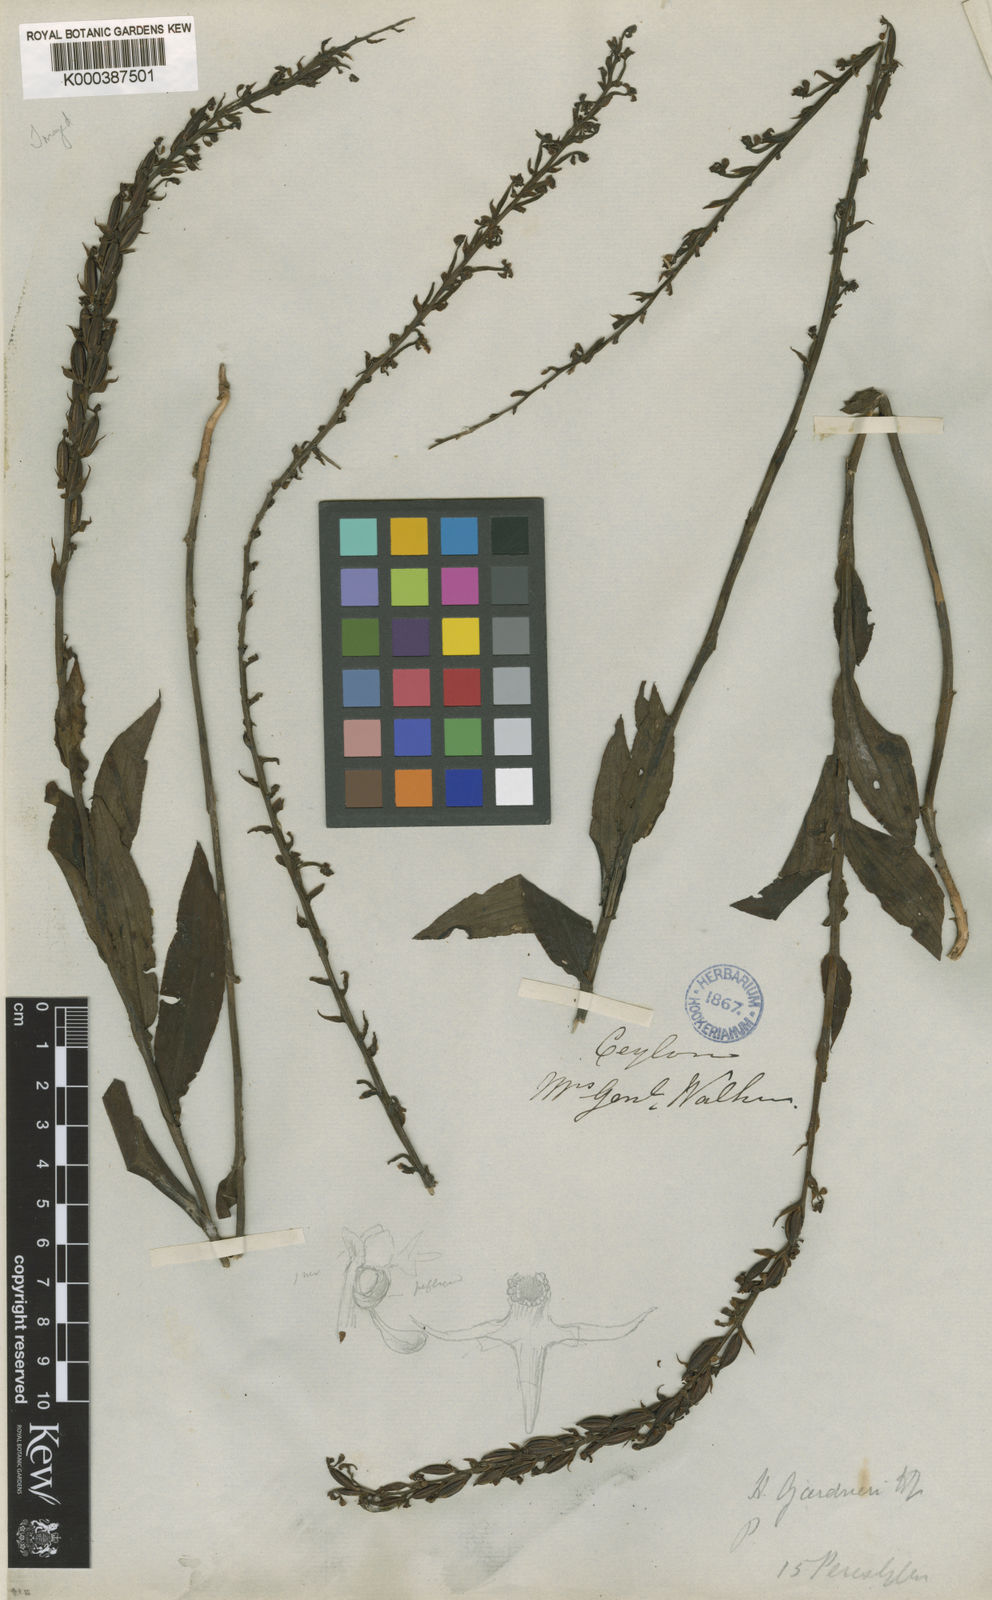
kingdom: Plantae
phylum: Tracheophyta
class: Liliopsida
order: Asparagales
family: Orchidaceae
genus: Peristylus
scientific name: Peristylus gardneri
